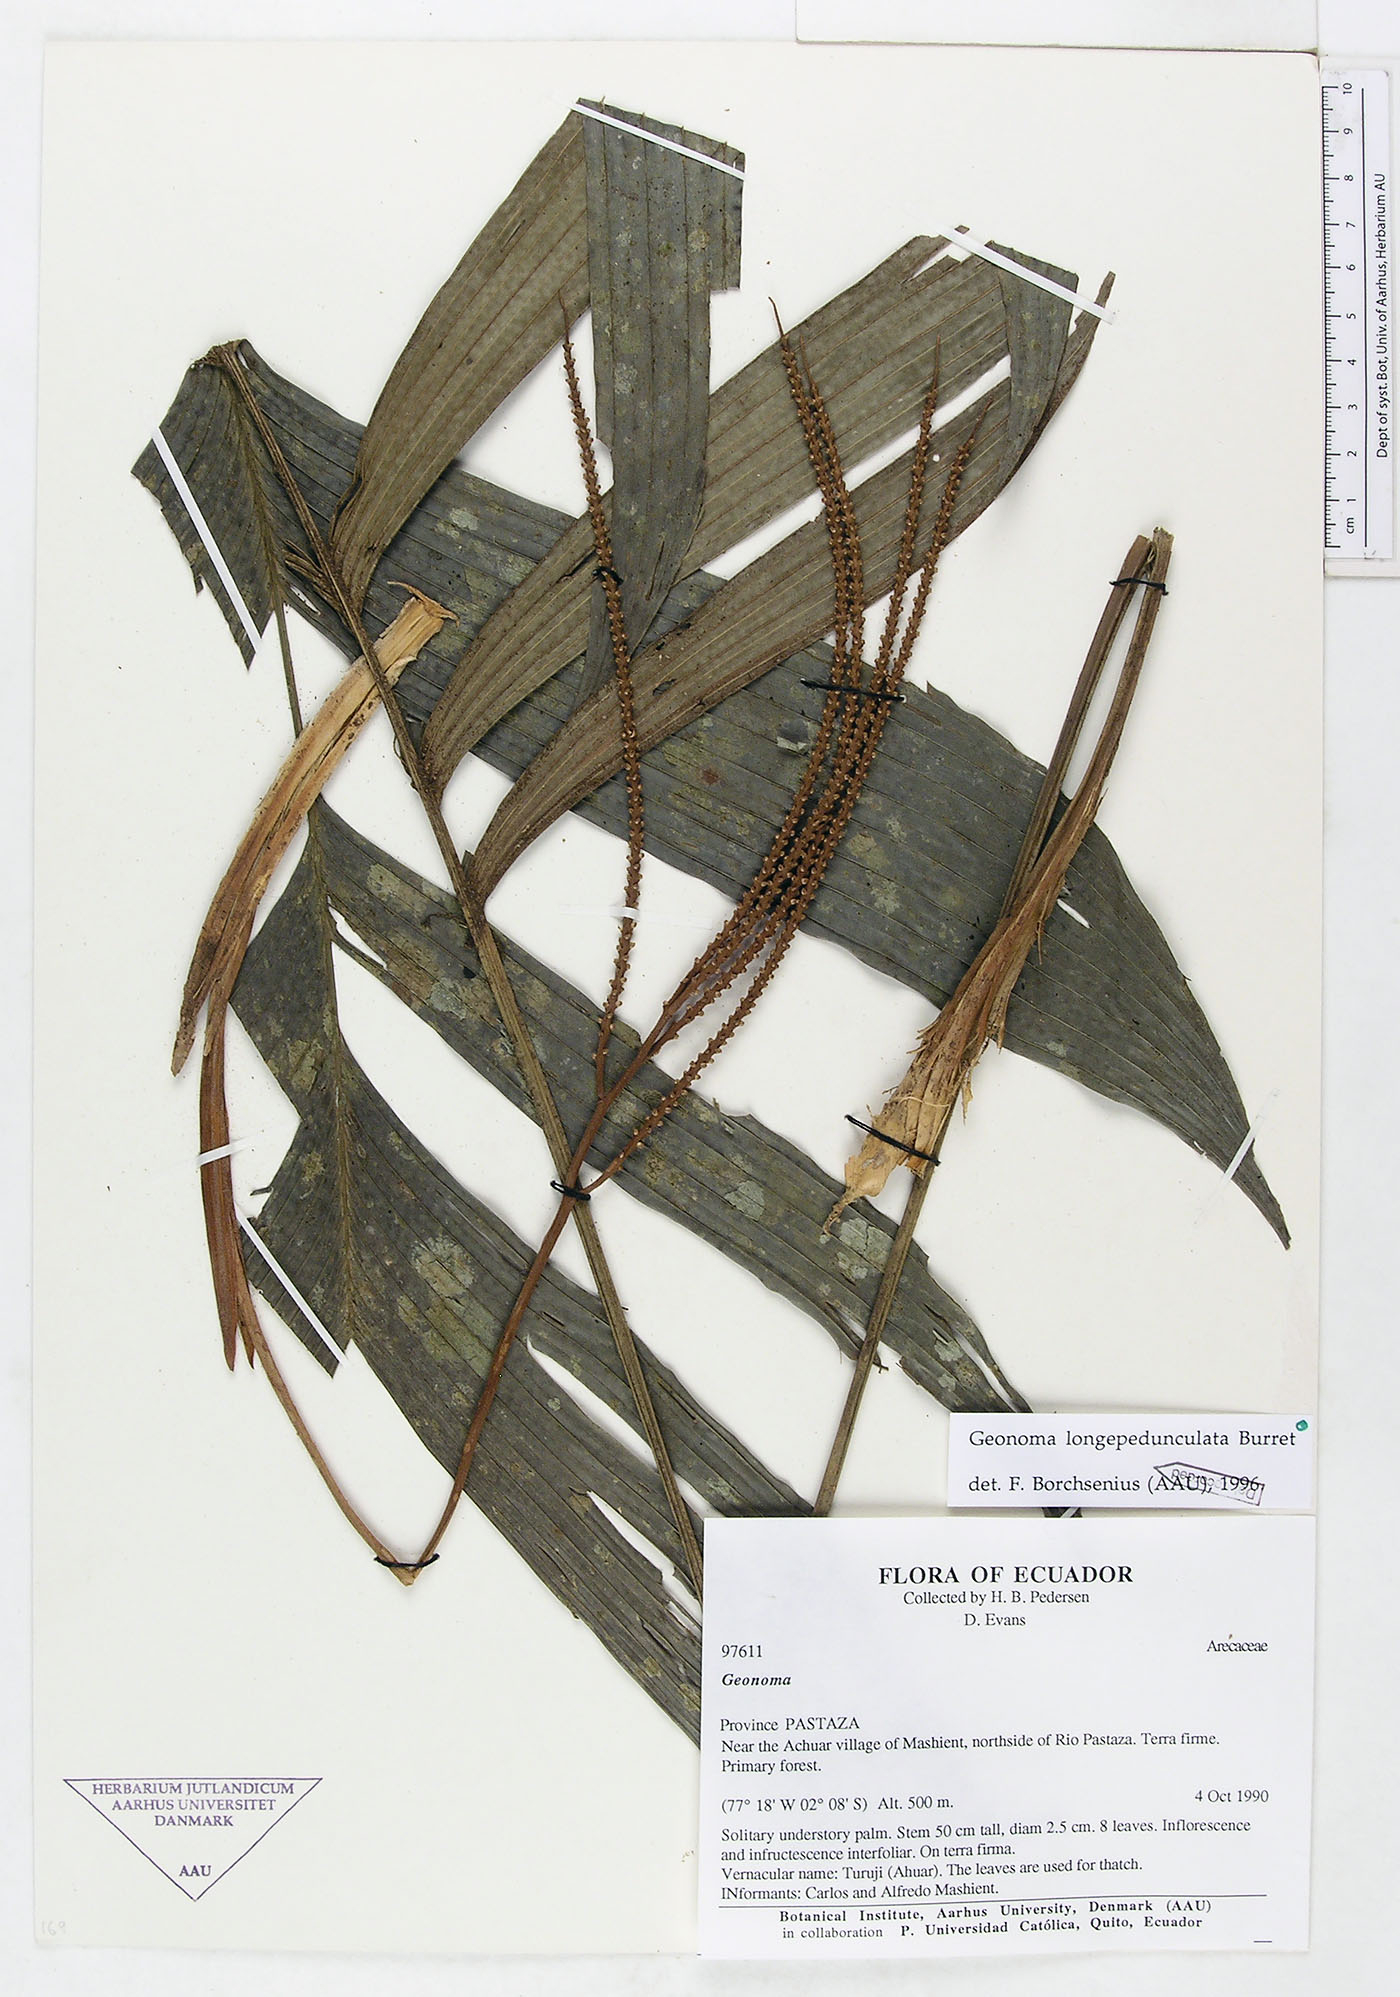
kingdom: Plantae
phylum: Tracheophyta
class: Liliopsida
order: Arecales
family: Arecaceae
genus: Geonoma
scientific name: Geonoma longepedunculata
